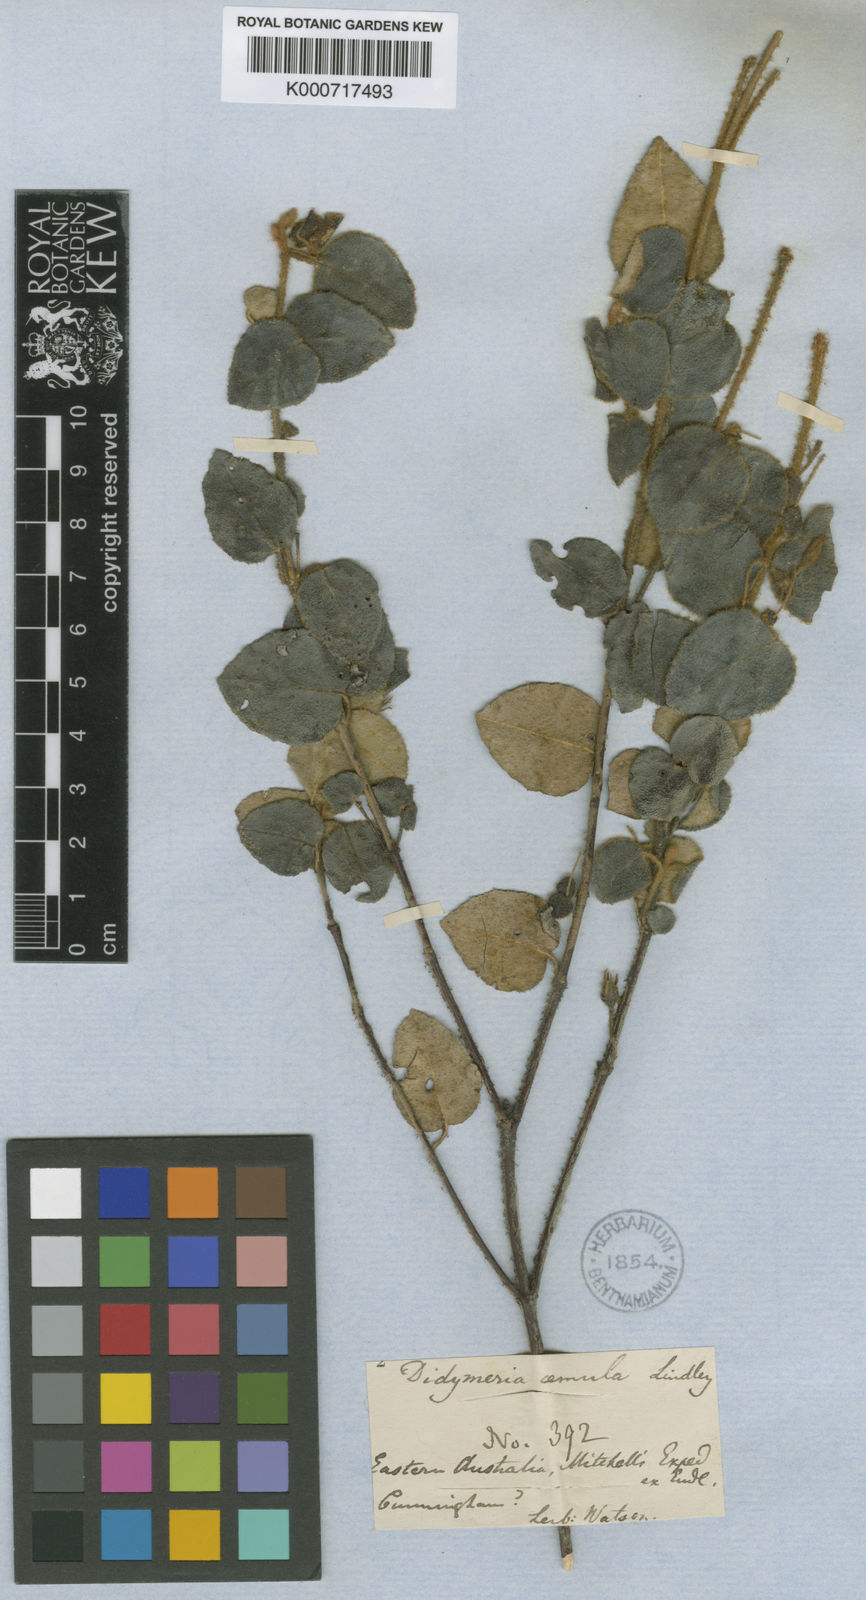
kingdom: Plantae
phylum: Tracheophyta
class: Magnoliopsida
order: Sapindales
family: Rutaceae
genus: Correa
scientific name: Correa aemula
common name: Hairy correa
